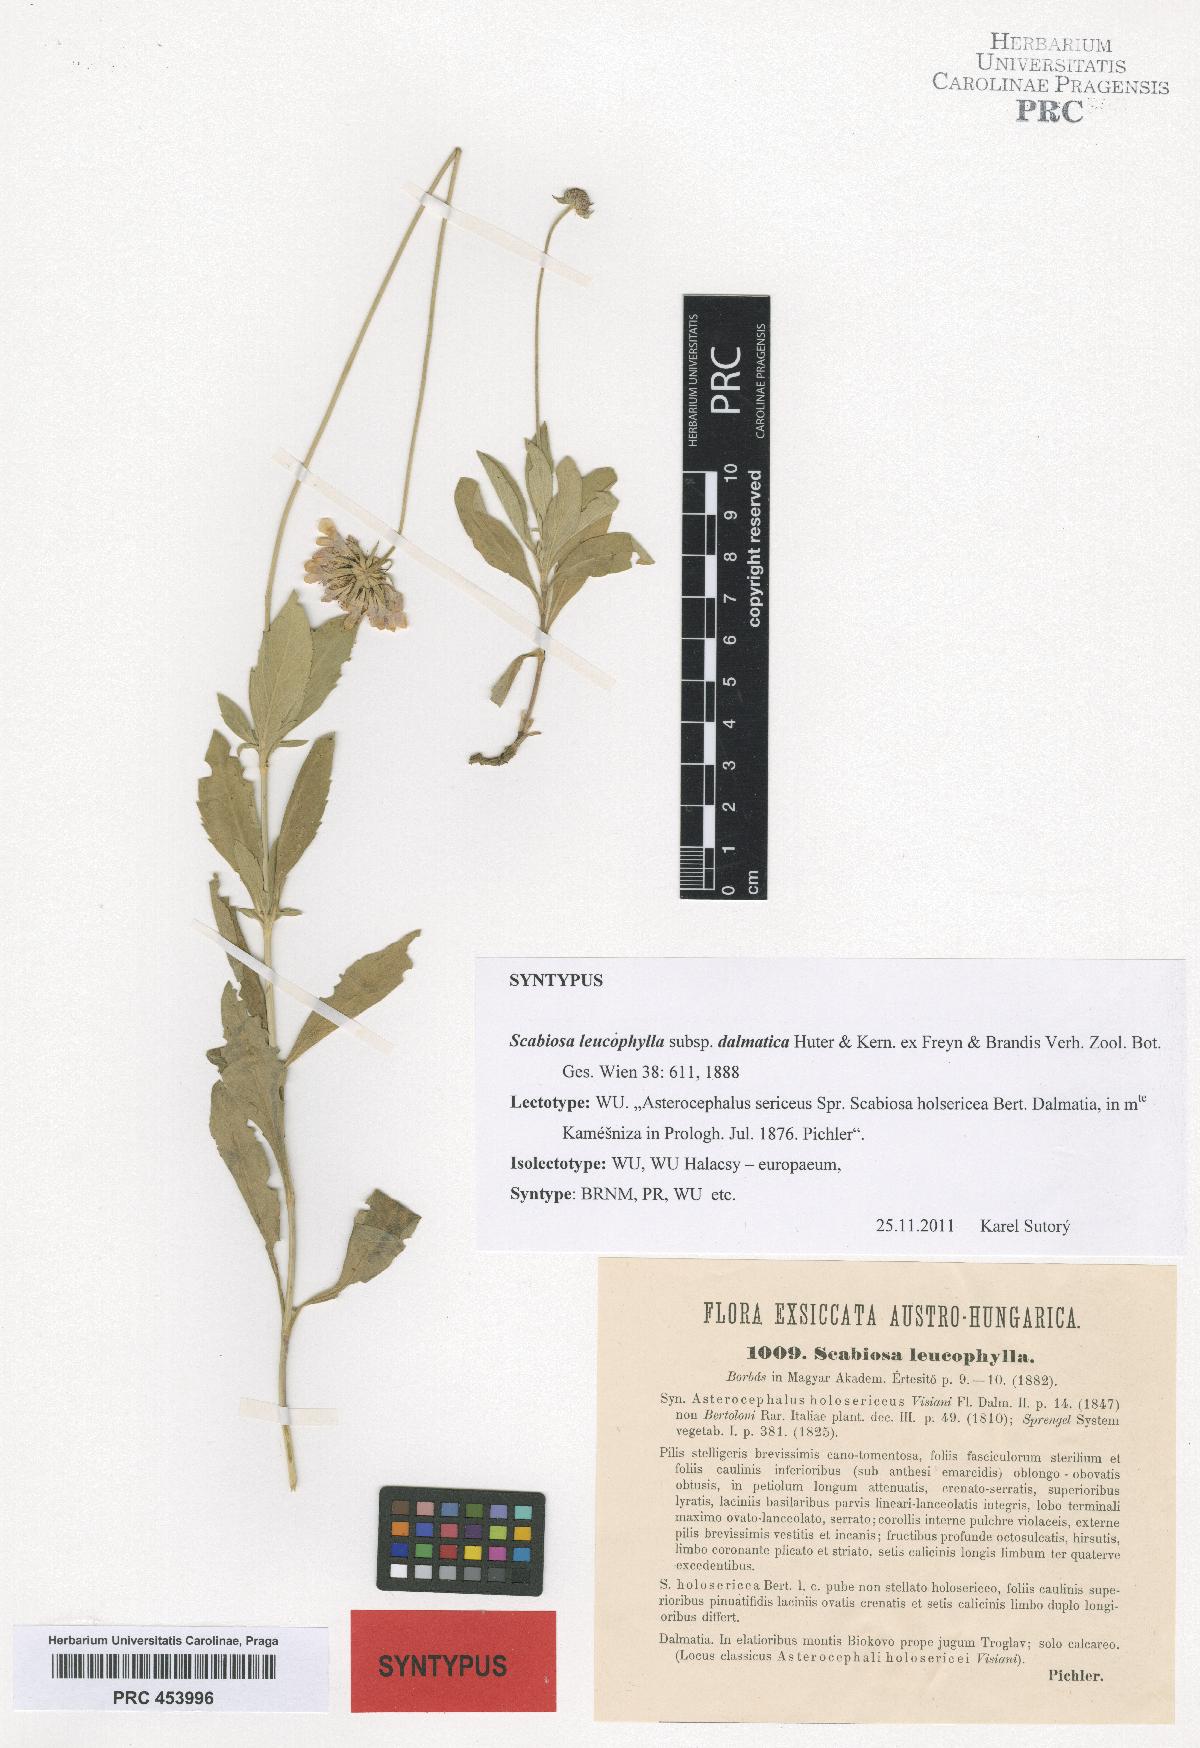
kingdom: Plantae
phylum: Tracheophyta
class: Magnoliopsida
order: Dipsacales
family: Caprifoliaceae
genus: Scabiosa
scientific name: Scabiosa cinerea
